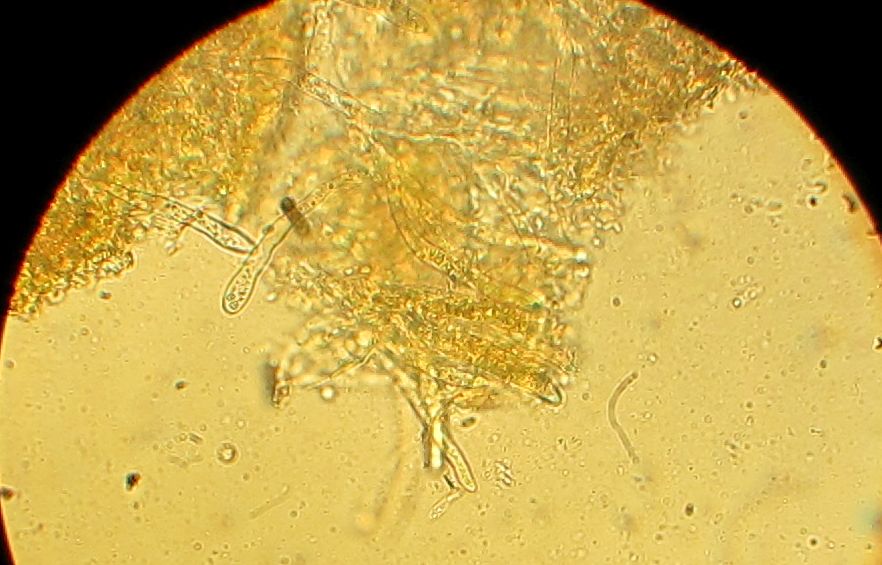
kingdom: Fungi
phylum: Ascomycota
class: Leotiomycetes
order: Helotiales
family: Hyaloscyphaceae
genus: Polydesmia
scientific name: Polydesmia pruinosa
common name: dunskive
